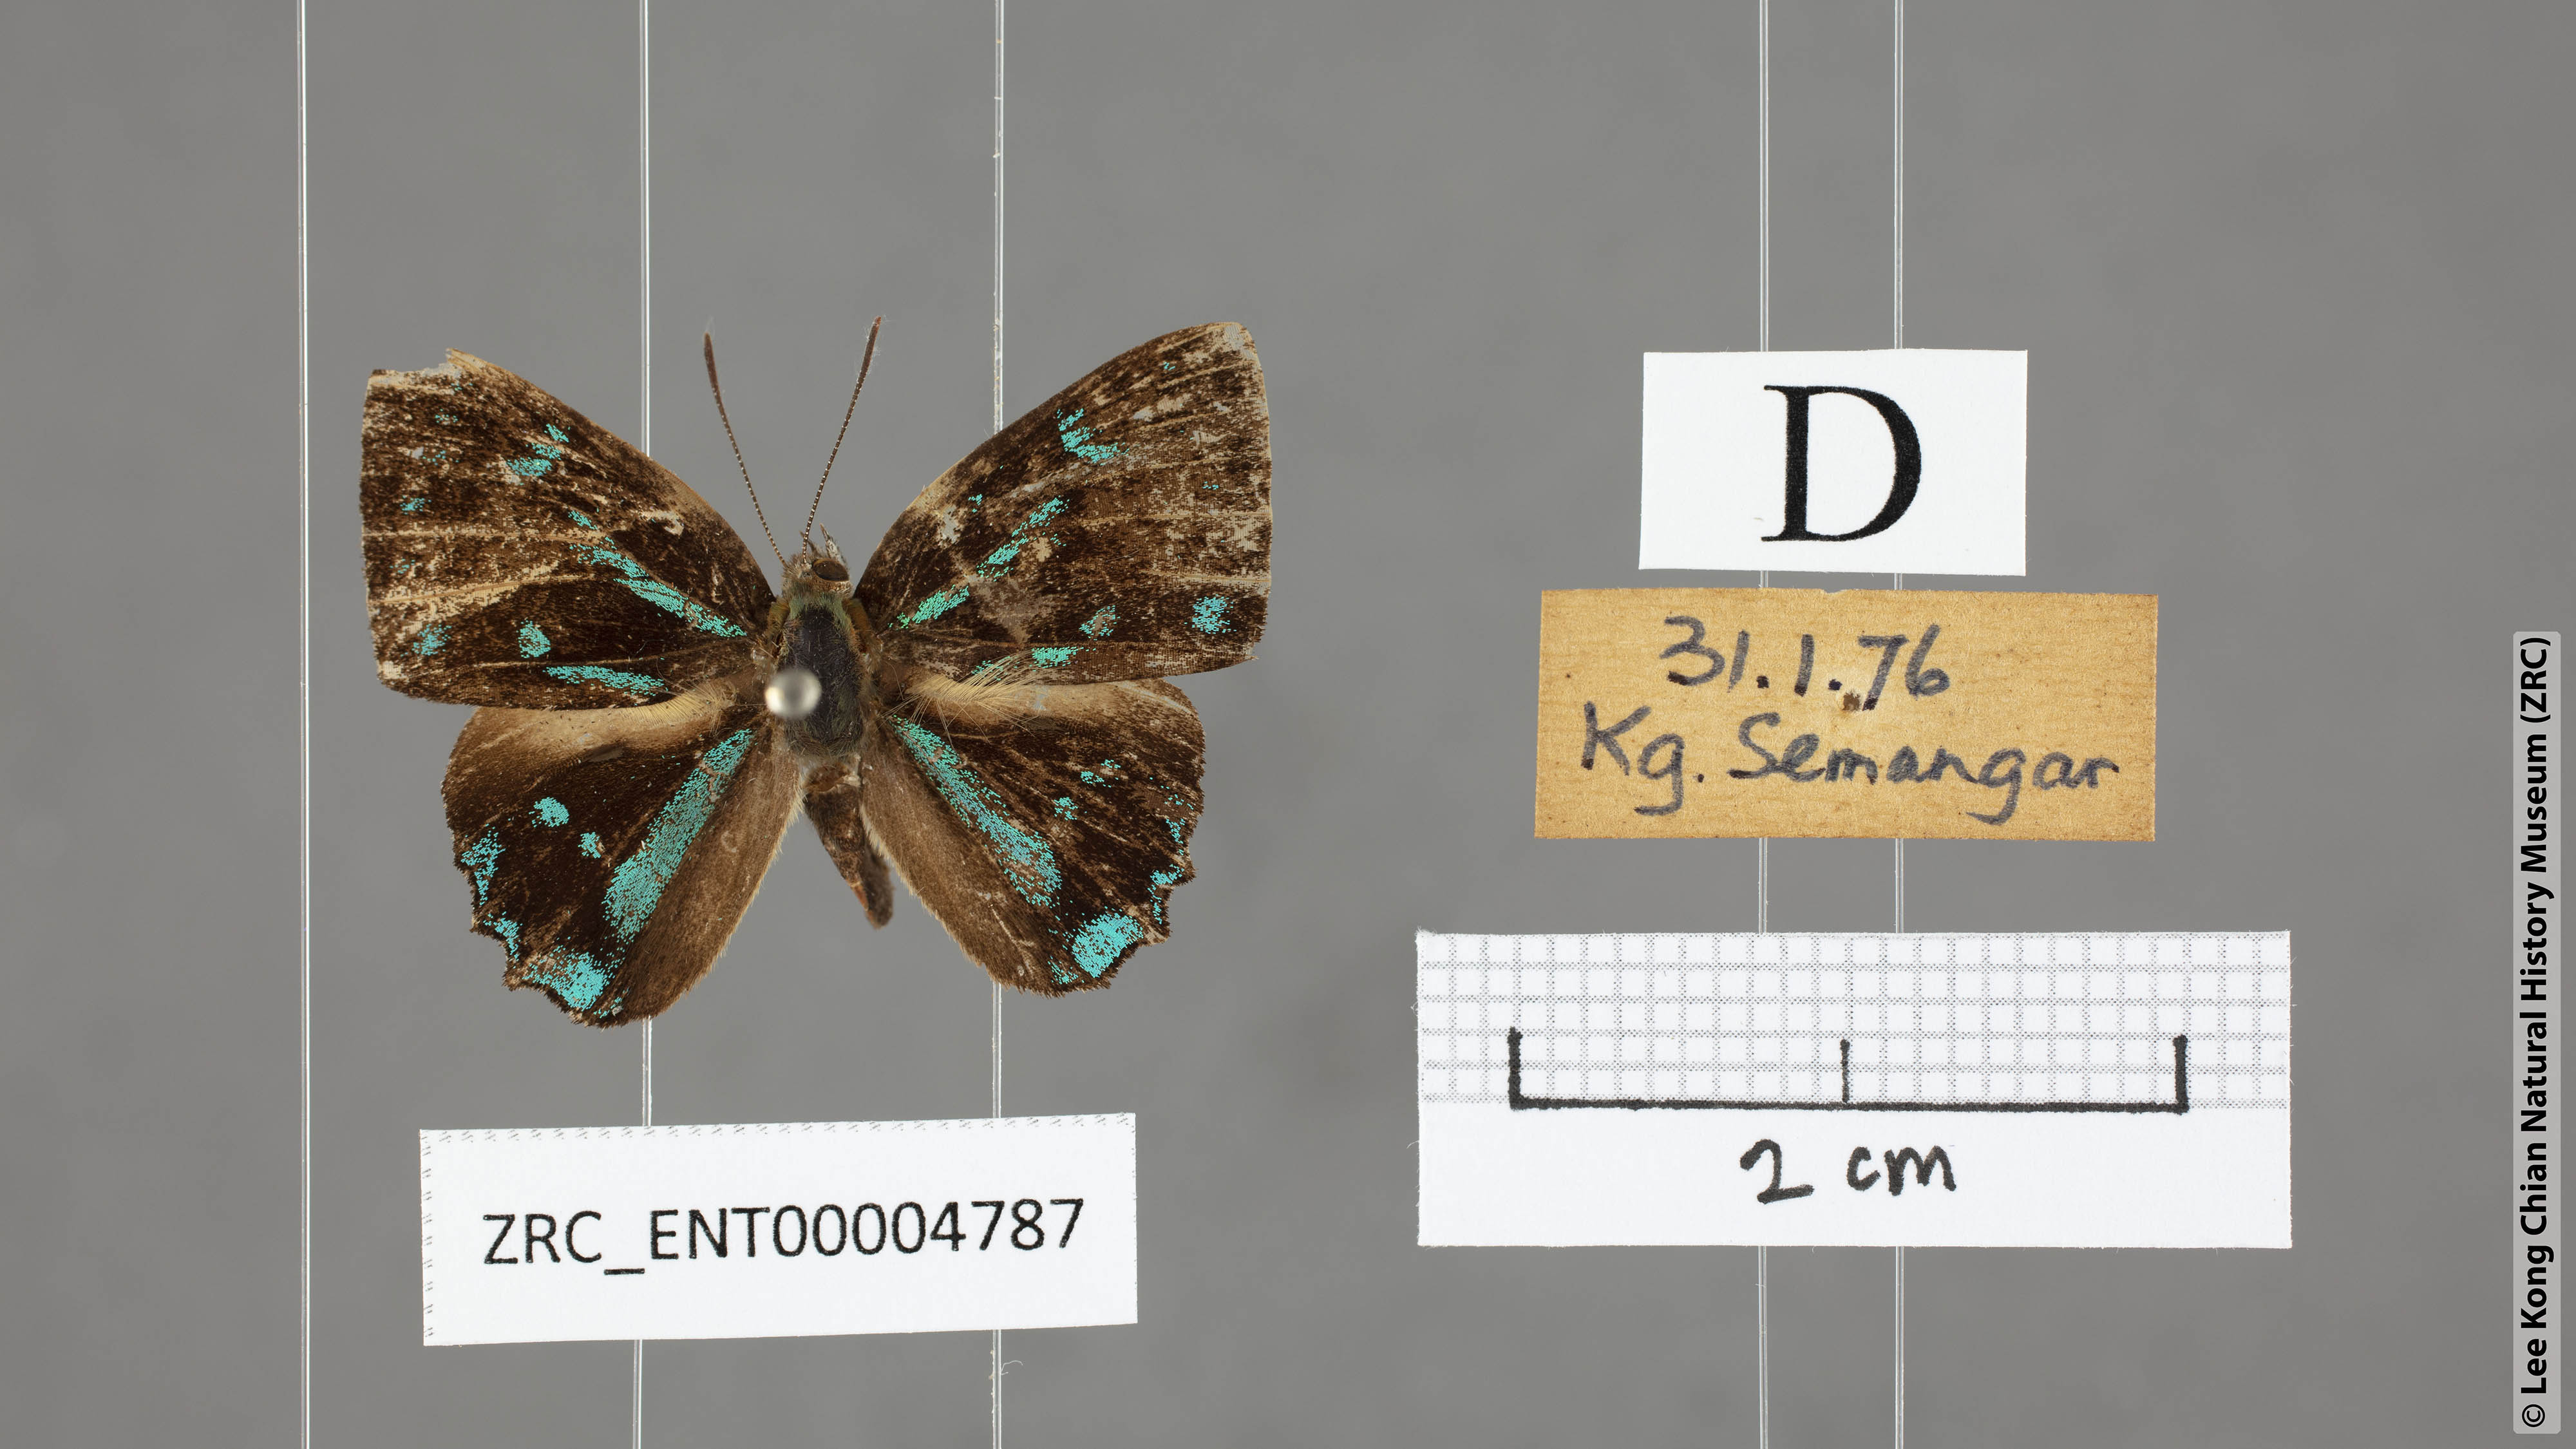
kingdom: Animalia
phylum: Arthropoda
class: Insecta
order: Lepidoptera
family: Lycaenidae
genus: Simiskina
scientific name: Simiskina
